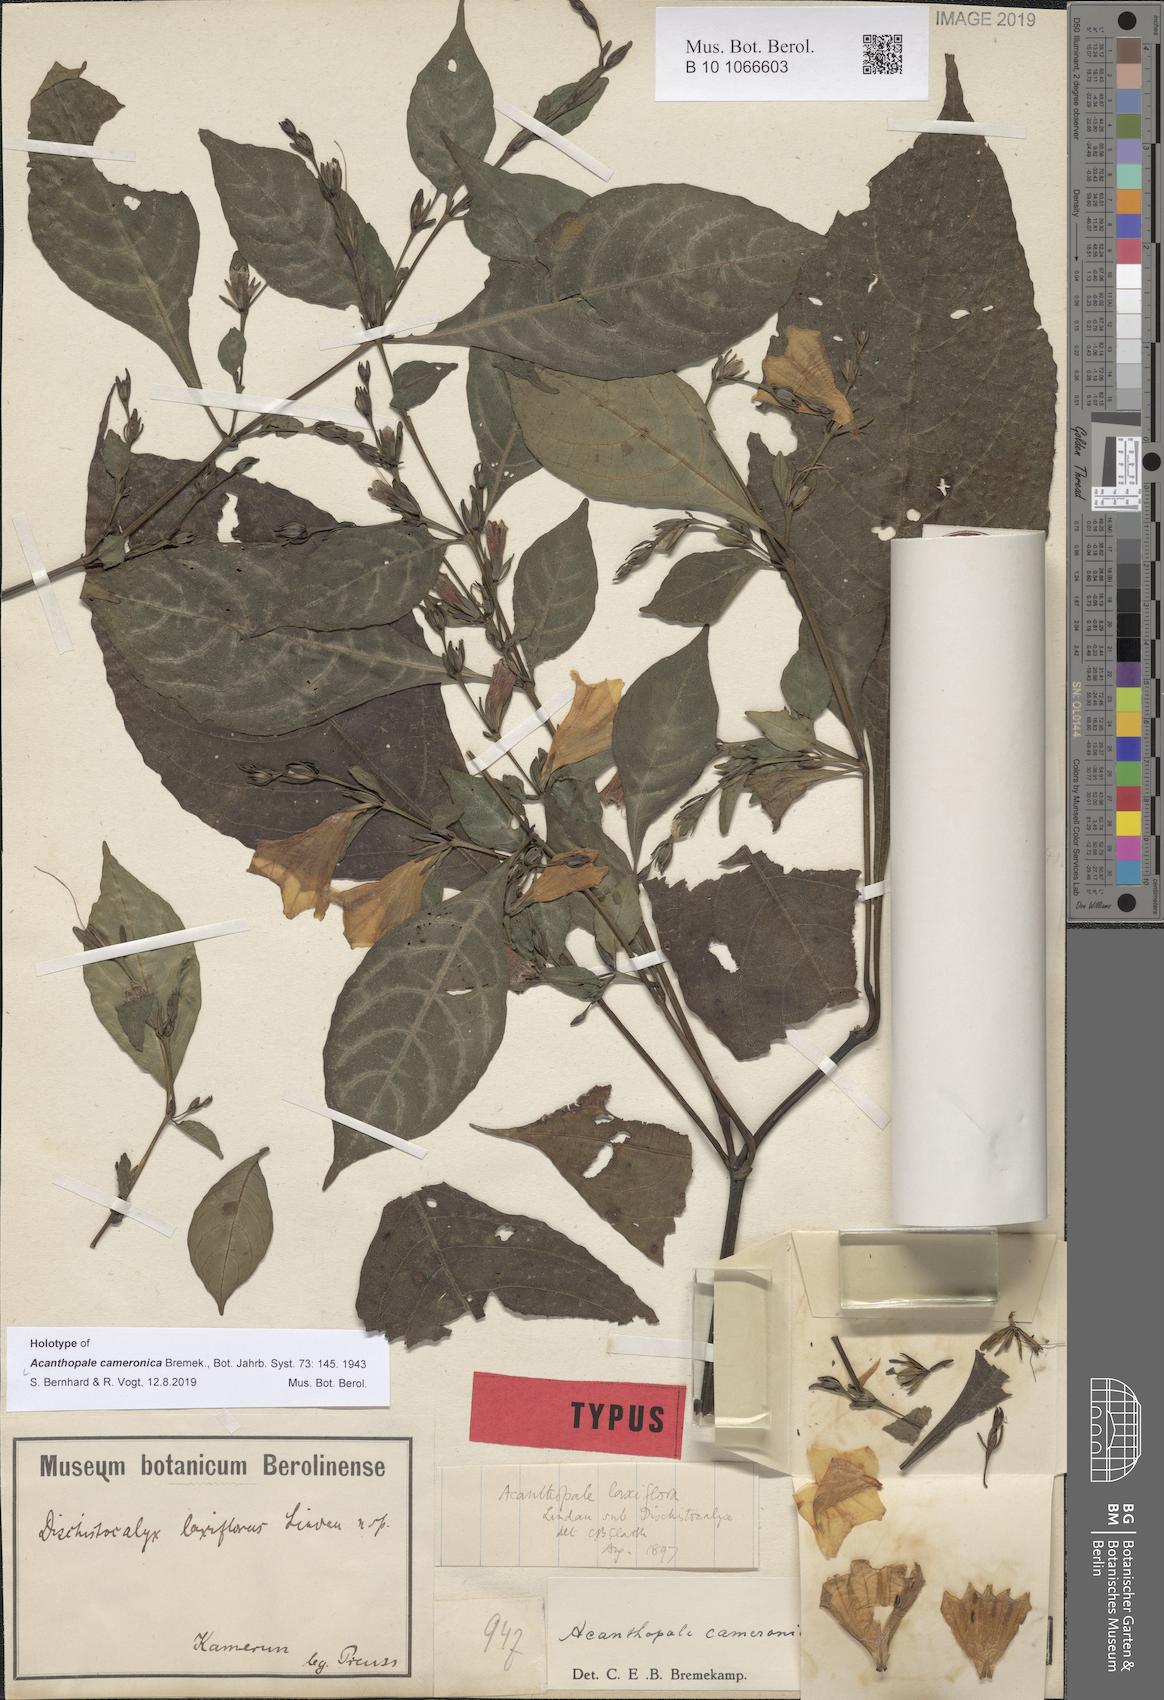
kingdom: Plantae
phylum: Tracheophyta
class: Magnoliopsida
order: Lamiales
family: Acanthaceae
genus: Acanthopale
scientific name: Acanthopale decempedalis
